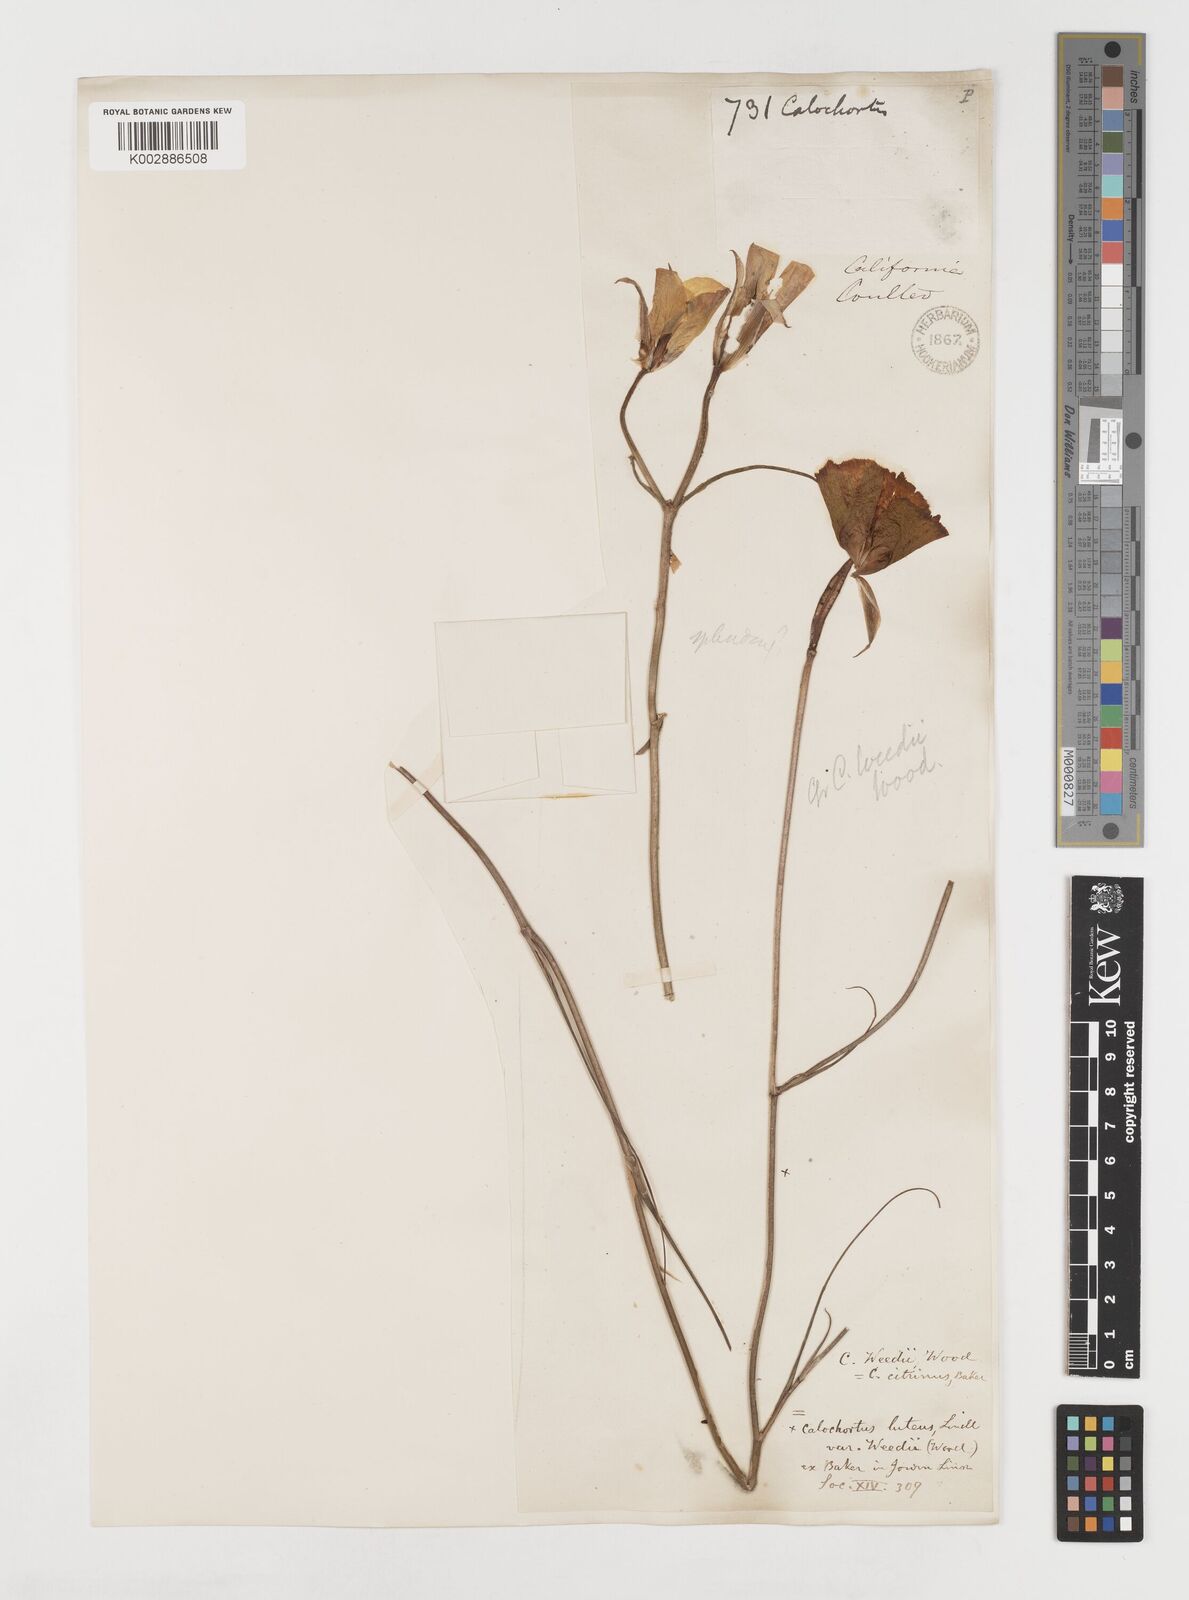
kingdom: Plantae
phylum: Tracheophyta
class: Liliopsida
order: Liliales
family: Liliaceae
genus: Calochortus
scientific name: Calochortus weedii
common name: Weed's mariposa-lily
